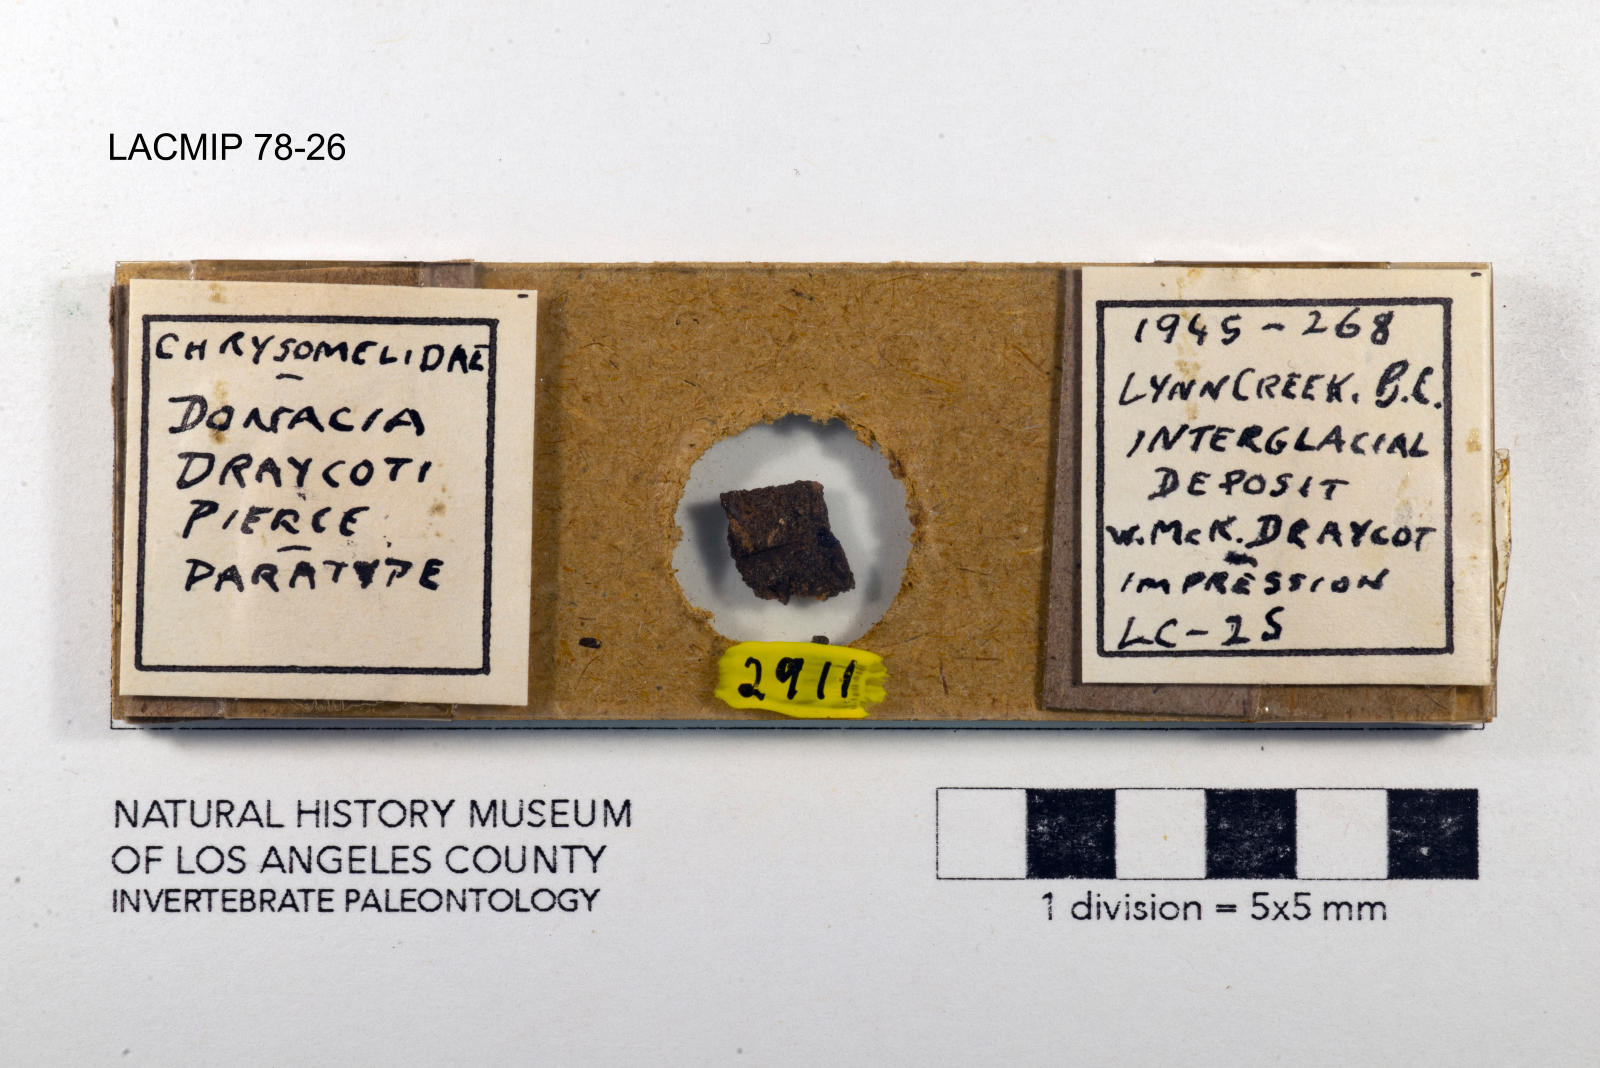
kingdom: Animalia
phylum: Arthropoda
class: Insecta
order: Coleoptera
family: Chrysomelidae
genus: Donacia
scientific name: Donacia draycoti
